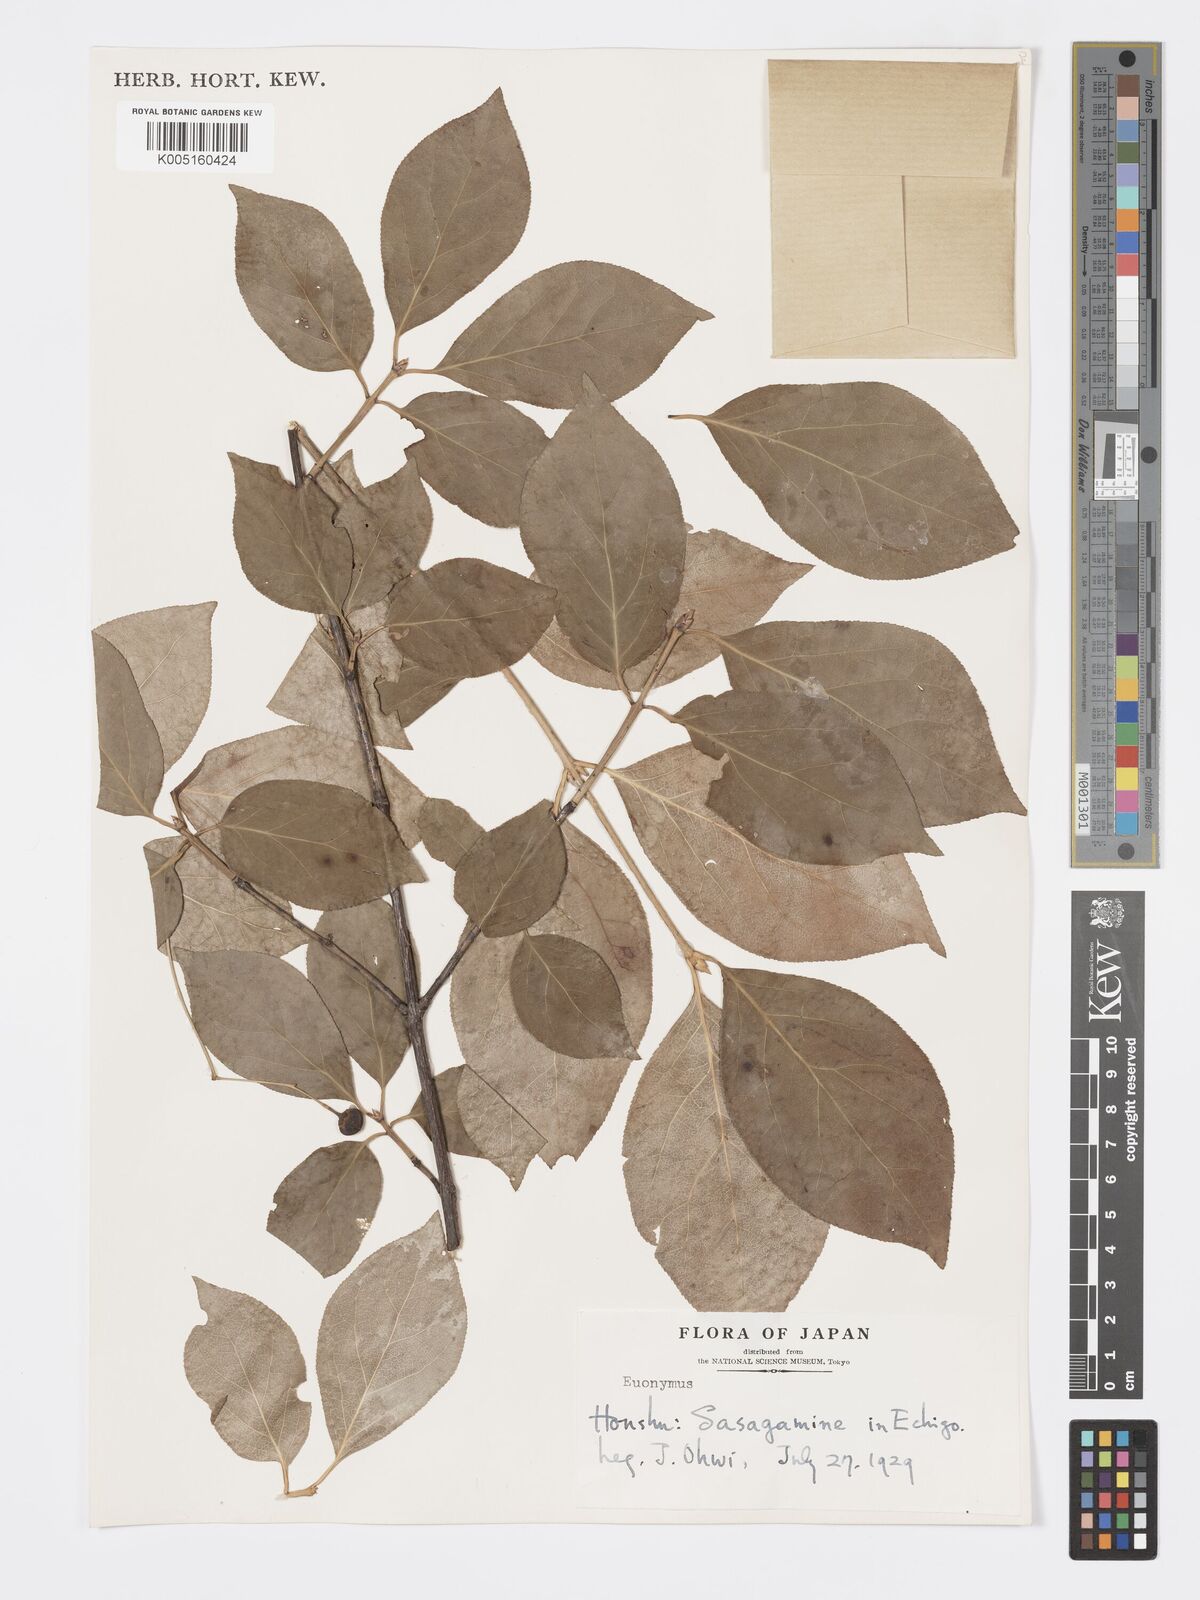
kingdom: Plantae
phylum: Tracheophyta
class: Magnoliopsida
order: Celastrales
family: Celastraceae
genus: Euonymus
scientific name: Euonymus
